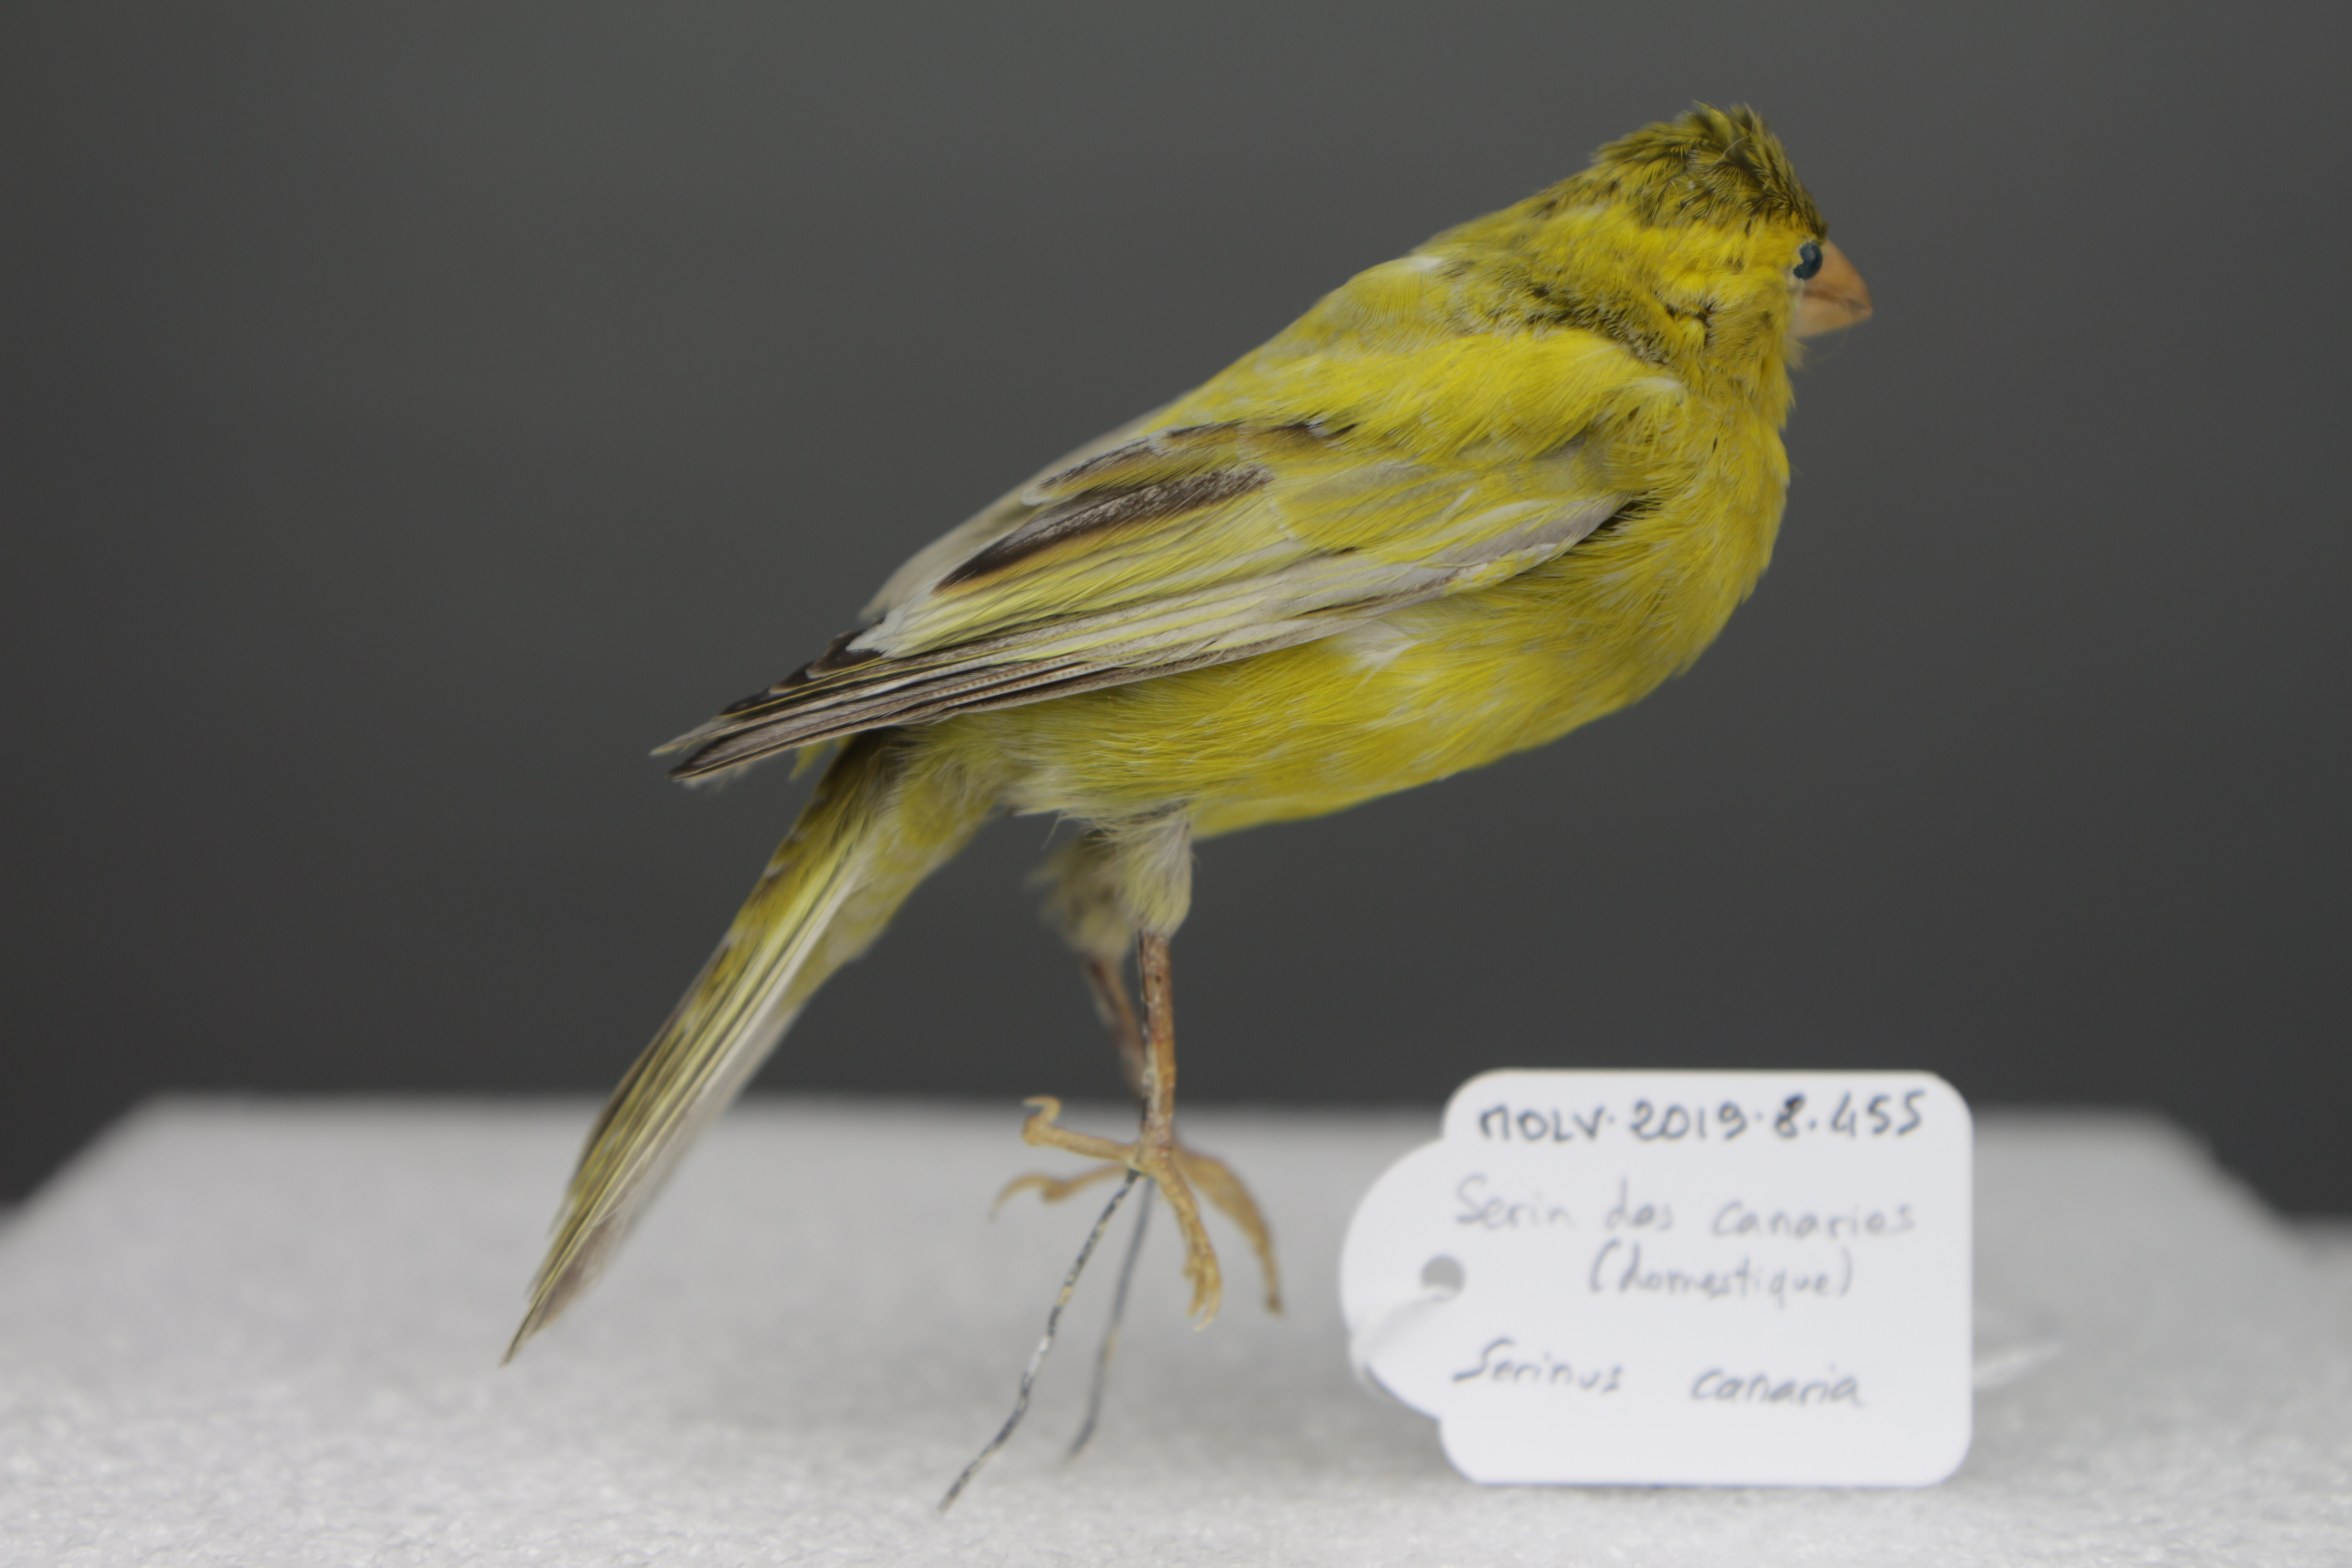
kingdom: Animalia
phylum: Chordata
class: Aves
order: Passeriformes
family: Fringillidae
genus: Serinus
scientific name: Serinus canaria
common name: Atlantic canary
